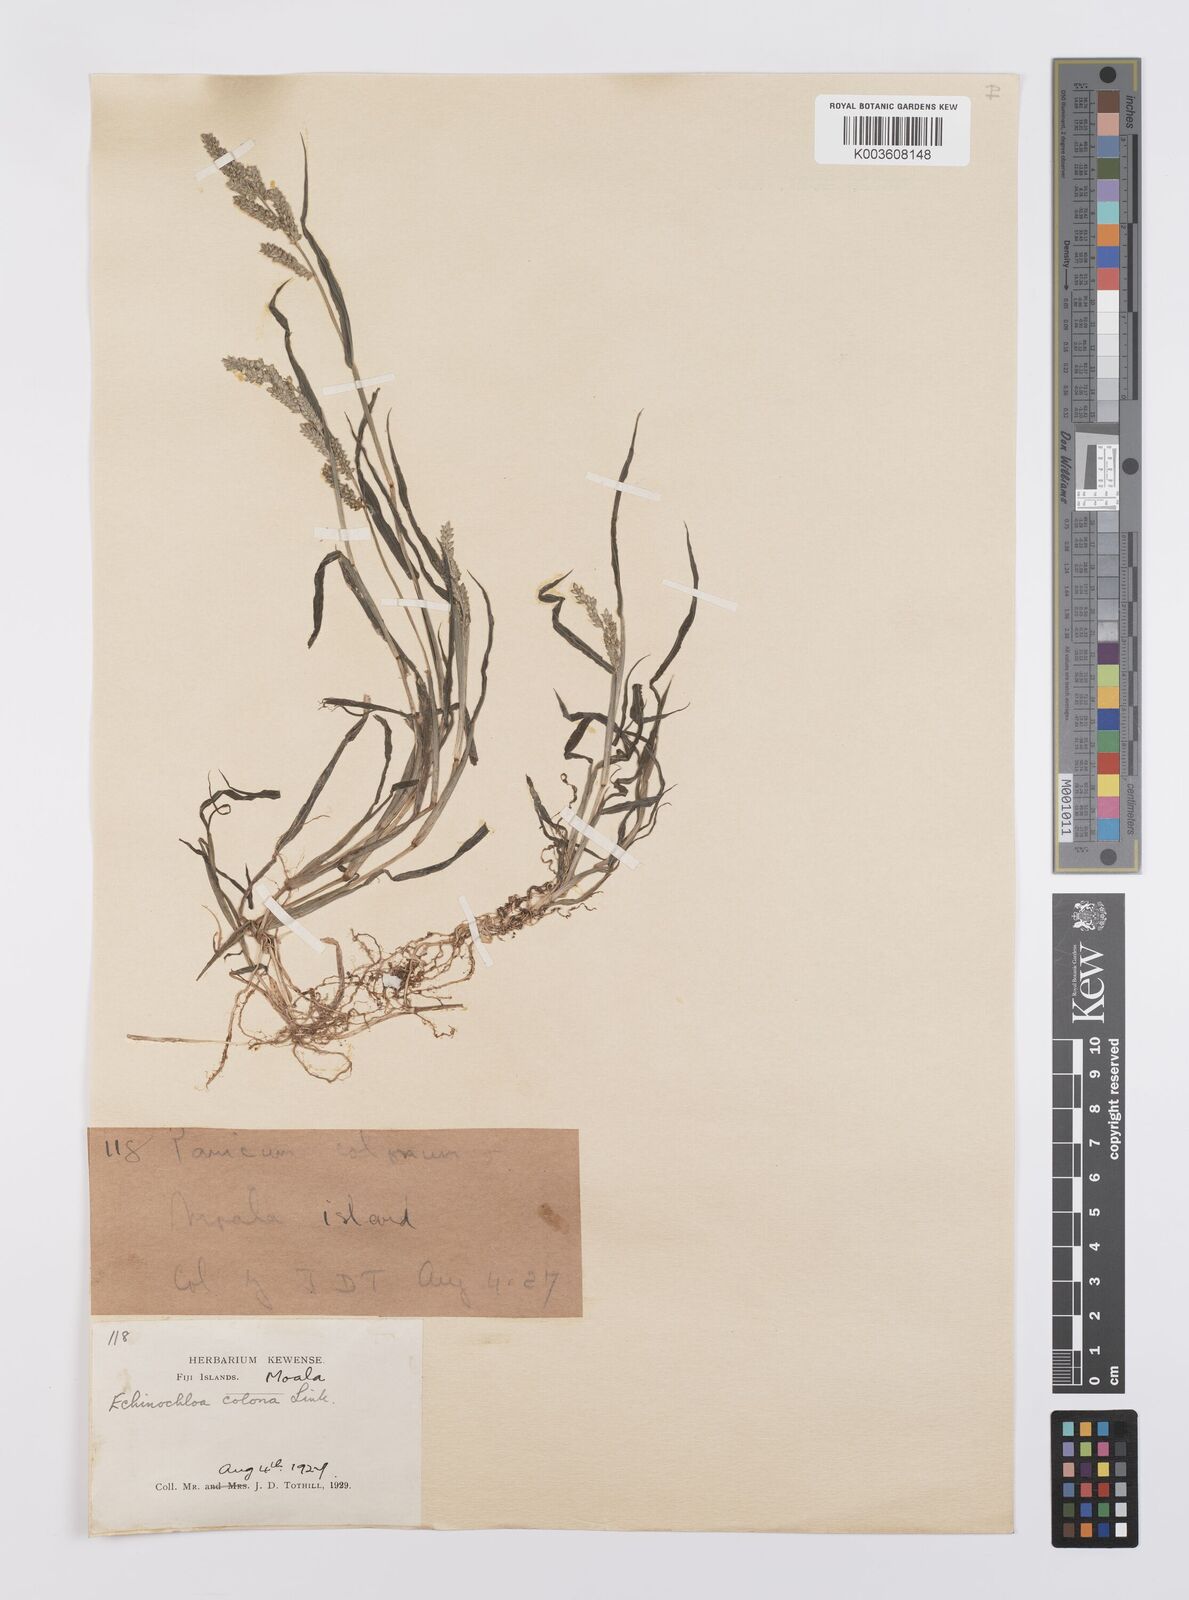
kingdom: Plantae
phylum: Tracheophyta
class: Liliopsida
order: Poales
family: Poaceae
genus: Echinochloa
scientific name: Echinochloa colonum
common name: Jungle rice
